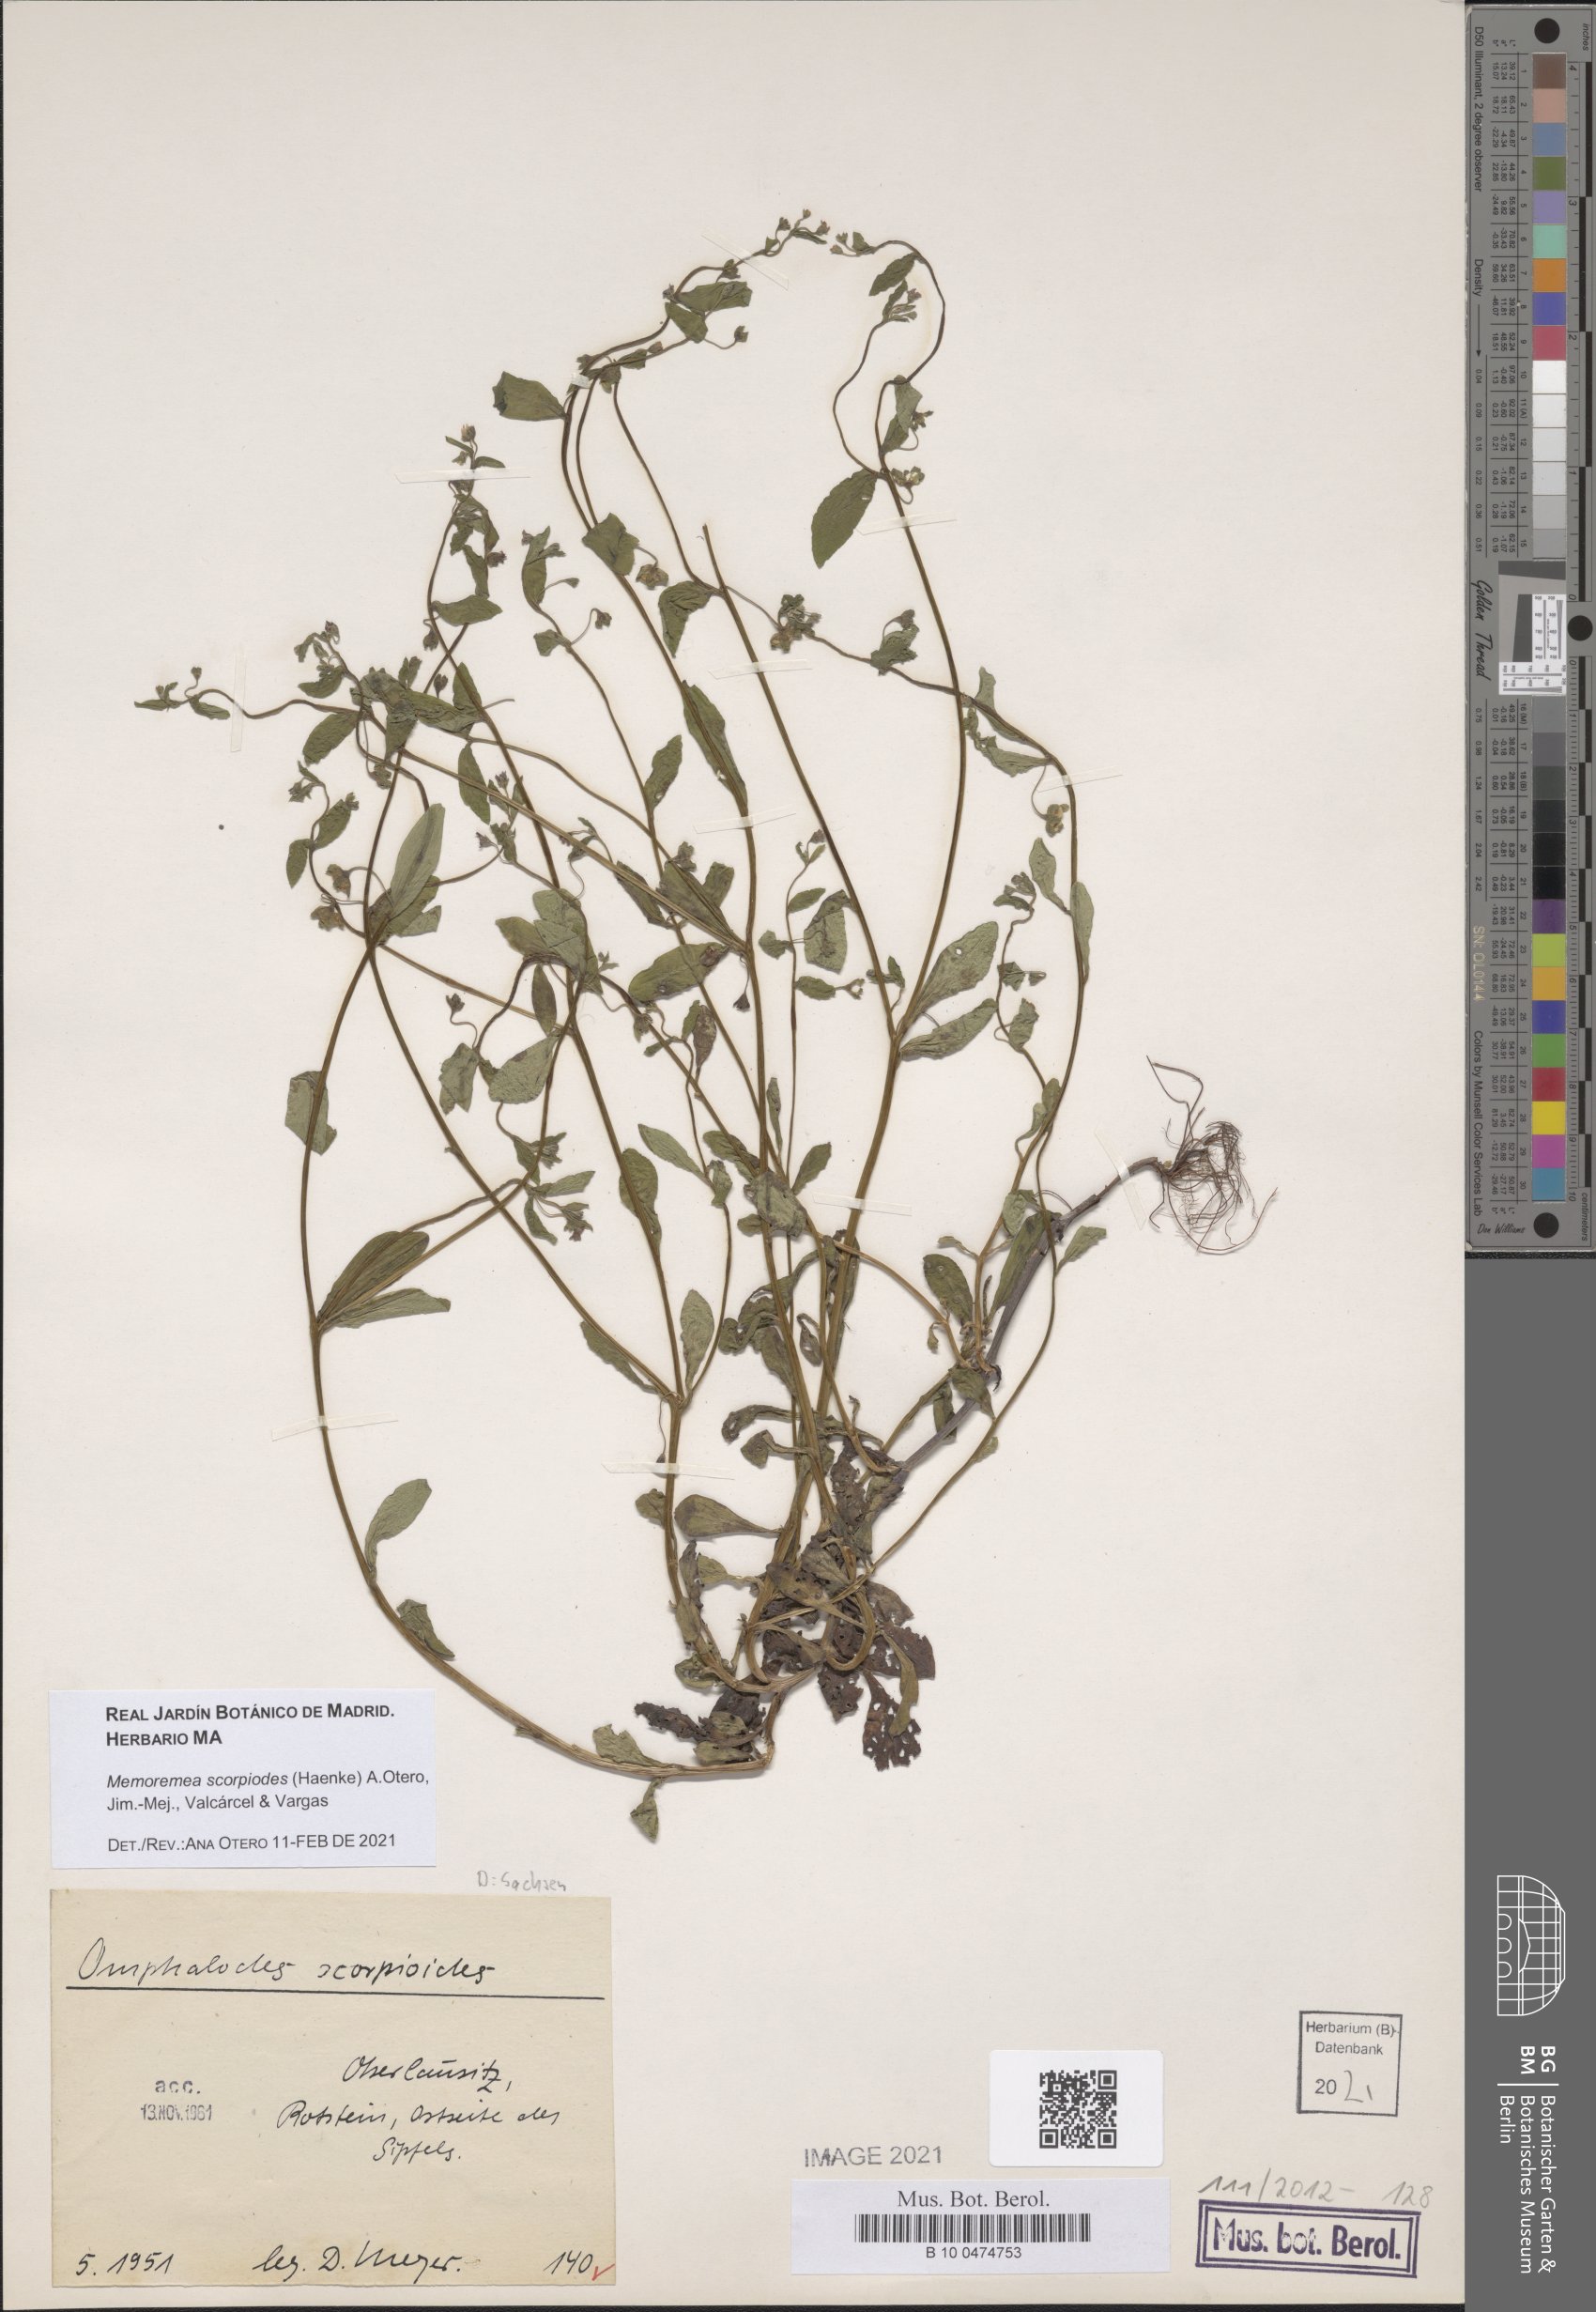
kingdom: Plantae
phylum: Tracheophyta
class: Magnoliopsida
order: Boraginales
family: Boraginaceae
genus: Memoremea
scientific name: Memoremea scorpioides
